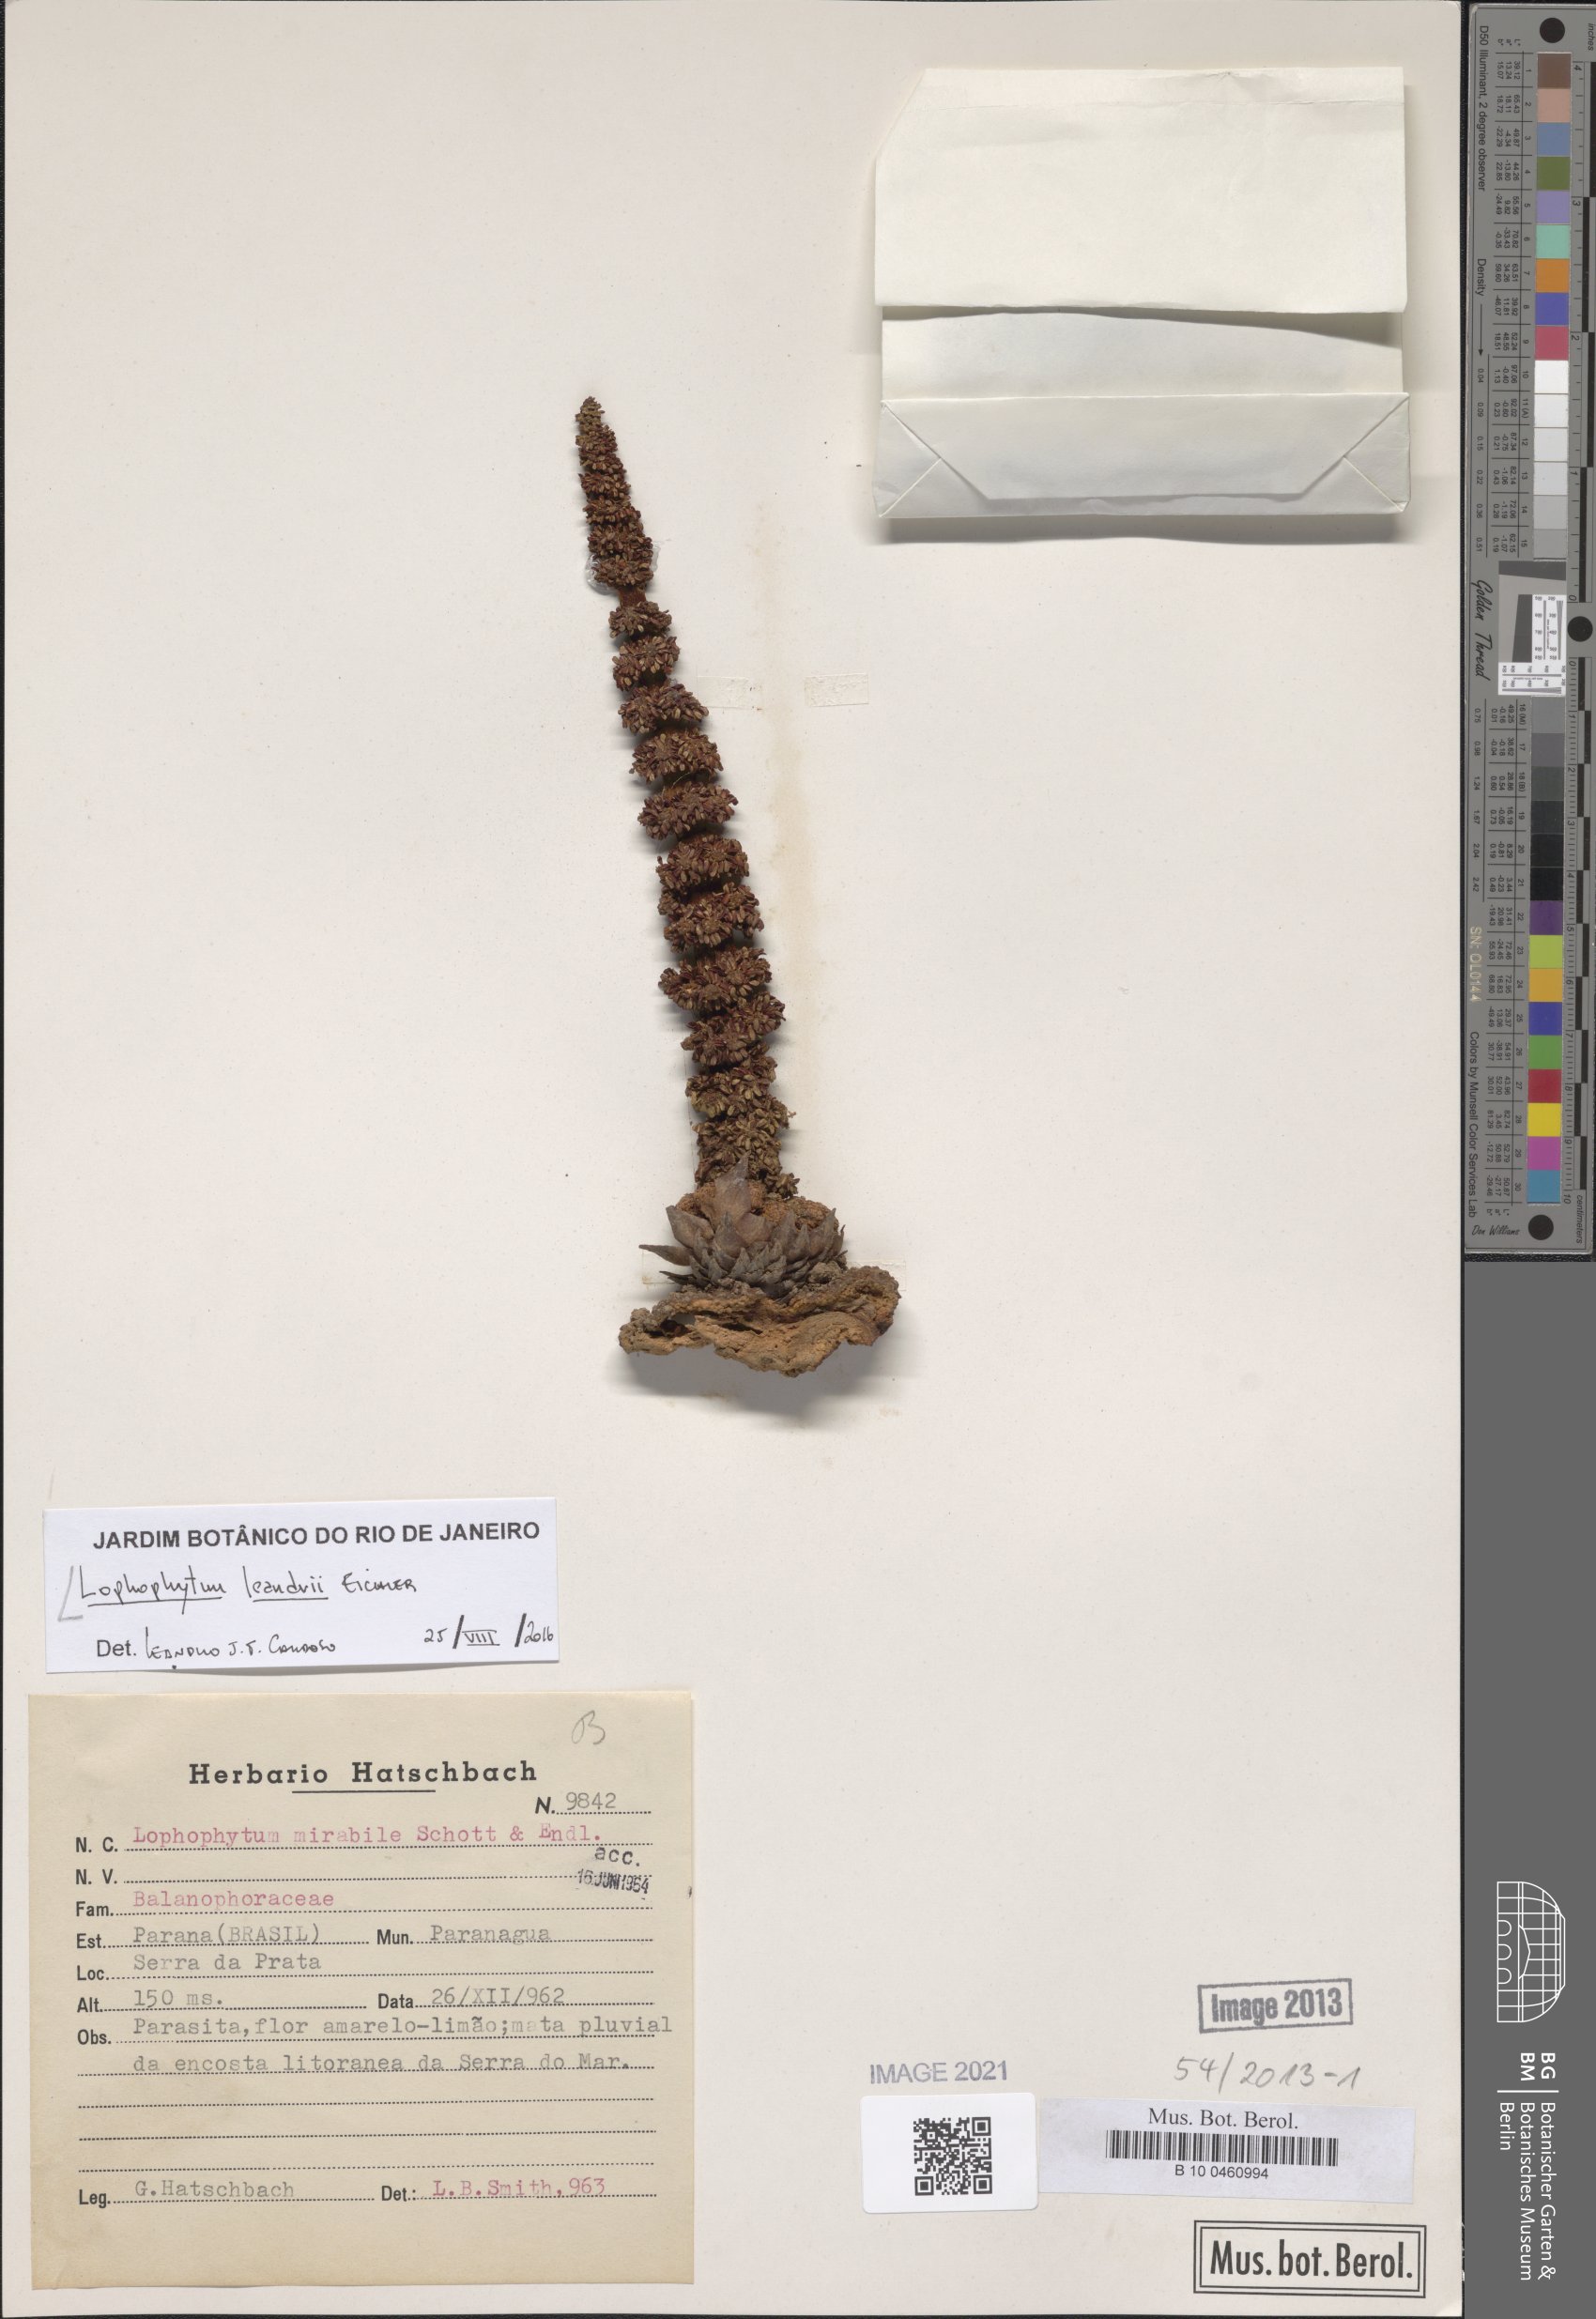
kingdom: Plantae
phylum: Tracheophyta
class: Magnoliopsida
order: Santalales
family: Balanophoraceae
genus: Lophophytum
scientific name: Lophophytum pyramidale
